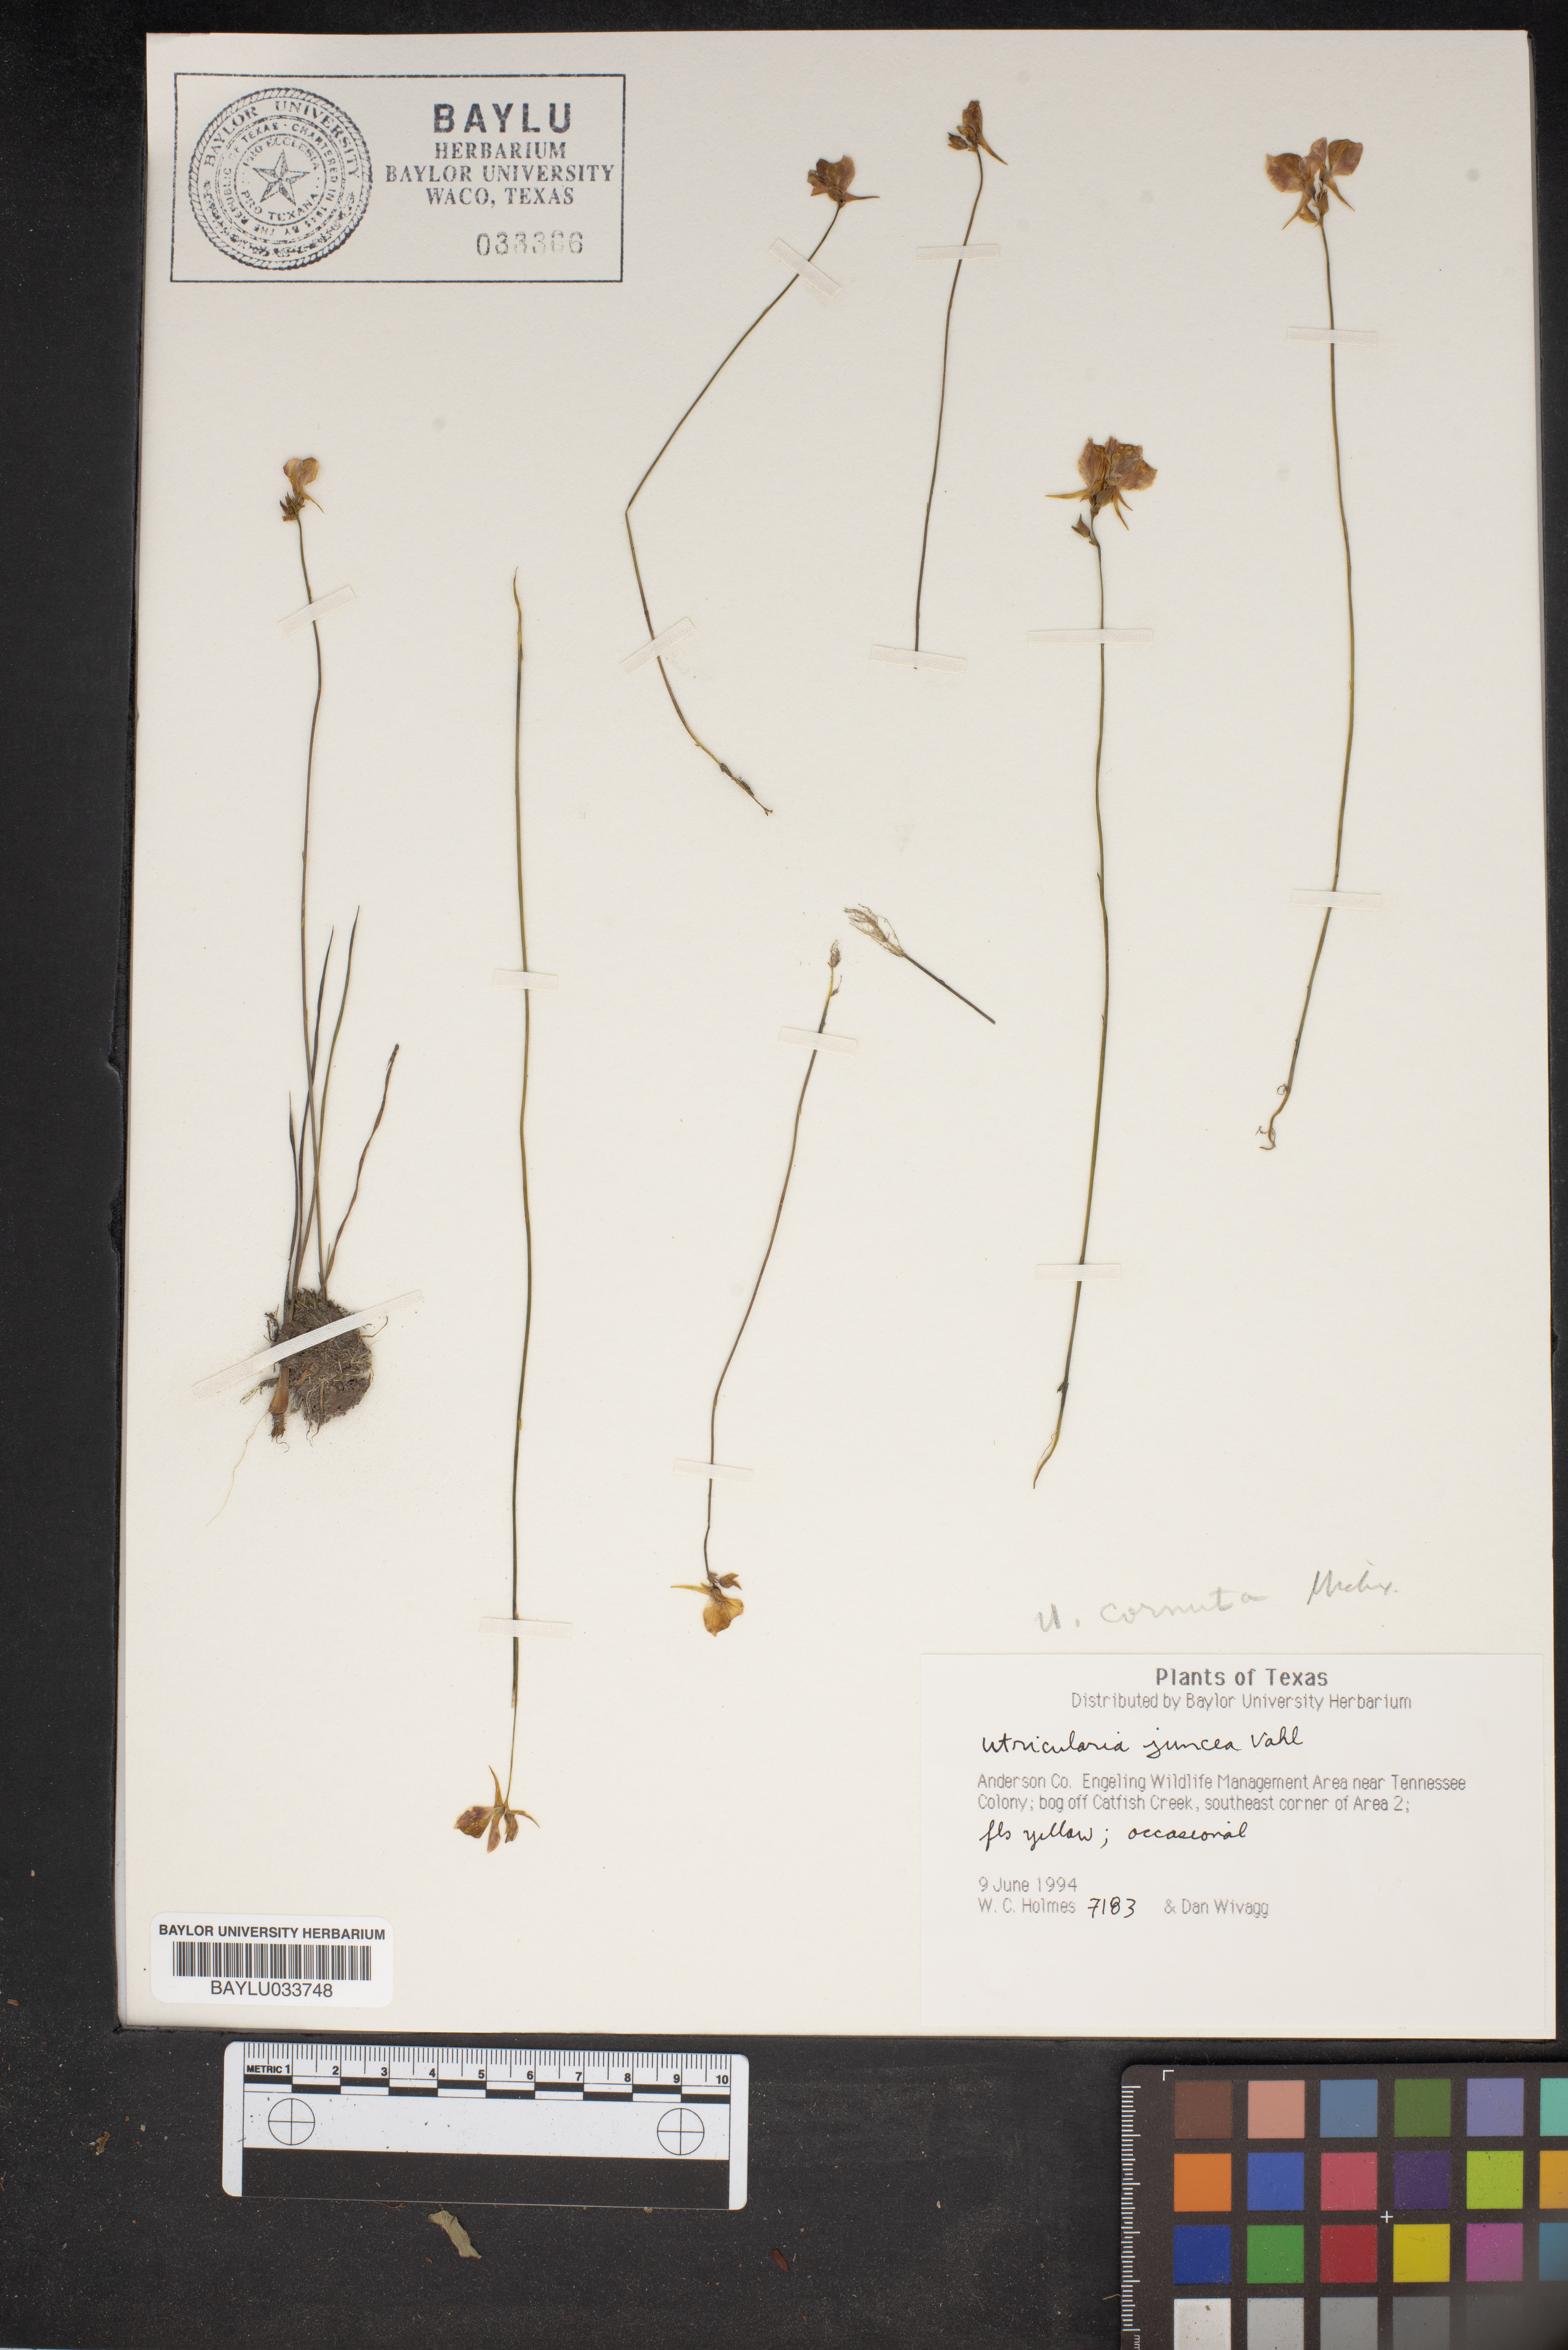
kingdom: Plantae
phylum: Tracheophyta
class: Magnoliopsida
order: Lamiales
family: Lentibulariaceae
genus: Utricularia
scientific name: Utricularia juncea
